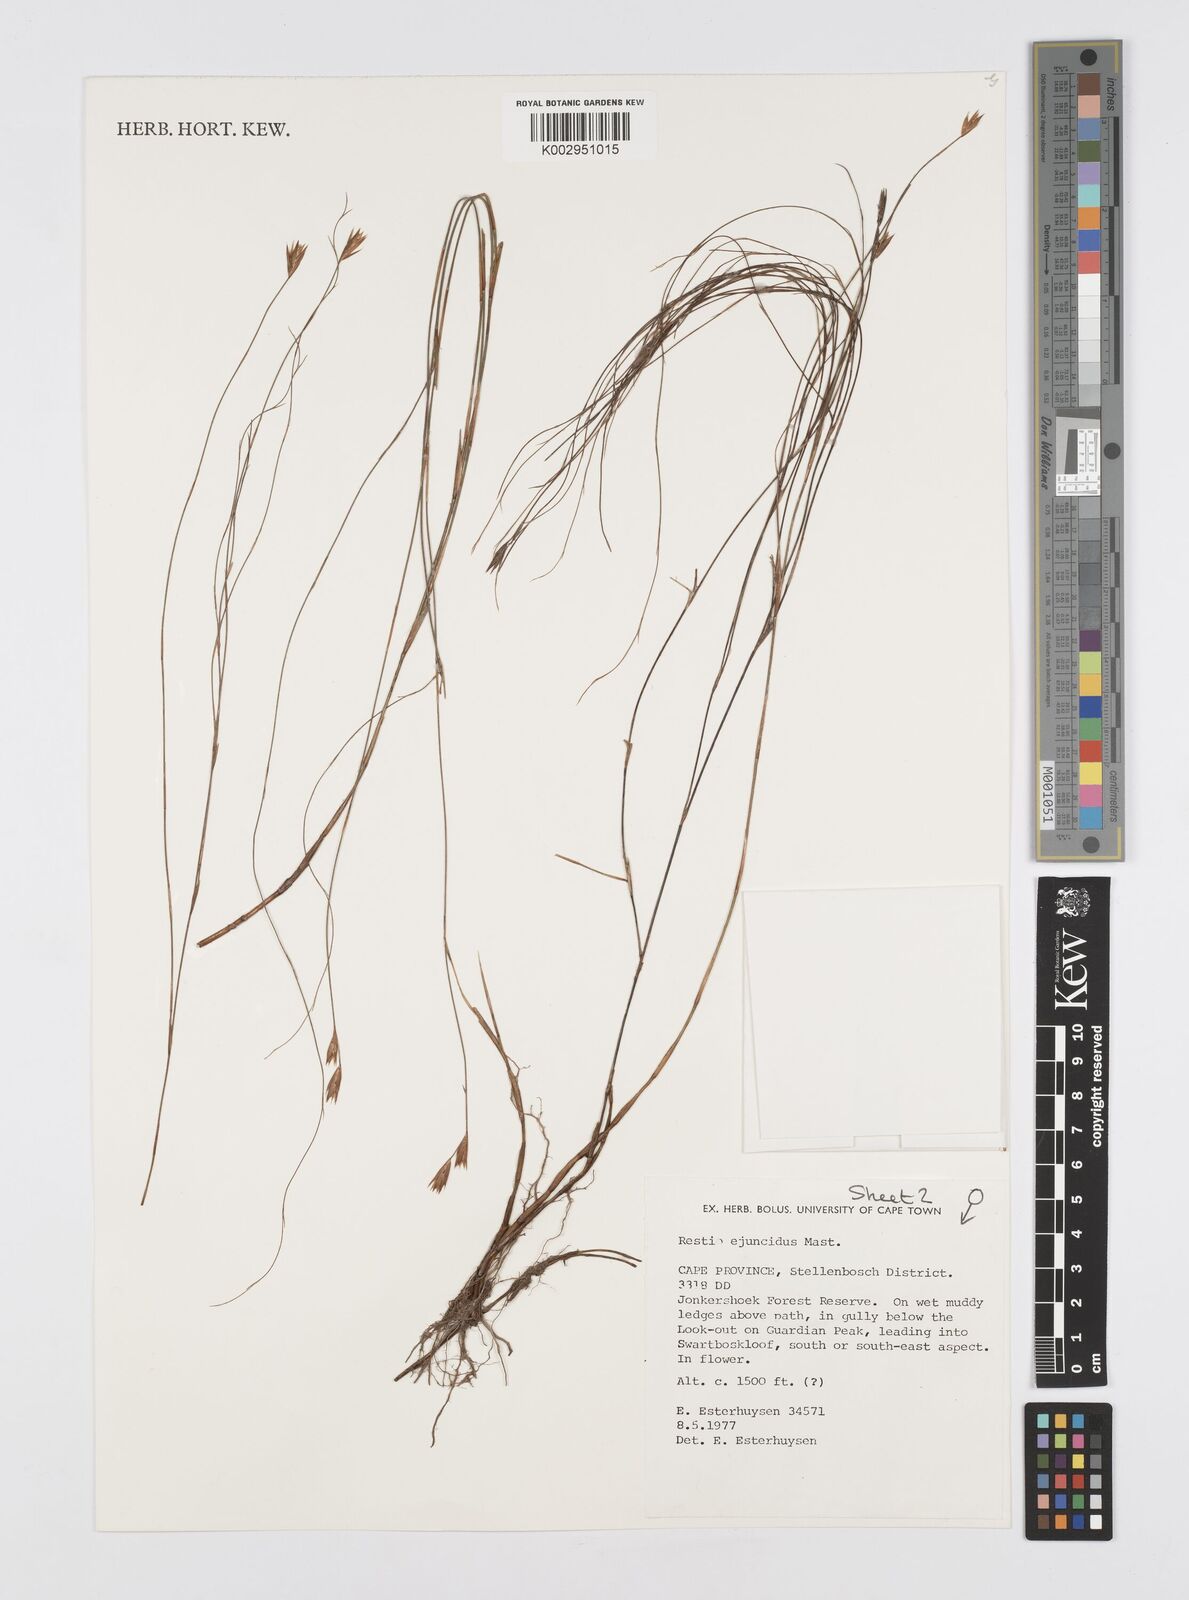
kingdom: Plantae
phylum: Tracheophyta
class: Liliopsida
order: Poales
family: Restionaceae
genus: Restio
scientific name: Restio ejuncidus
